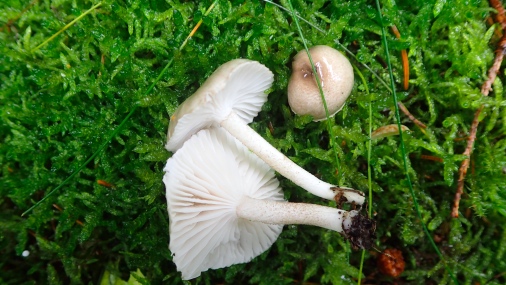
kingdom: Fungi
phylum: Basidiomycota
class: Agaricomycetes
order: Agaricales
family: Hygrophoraceae
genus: Hygrophorus
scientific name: Hygrophorus pustulatus
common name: mørkprikket sneglehat
